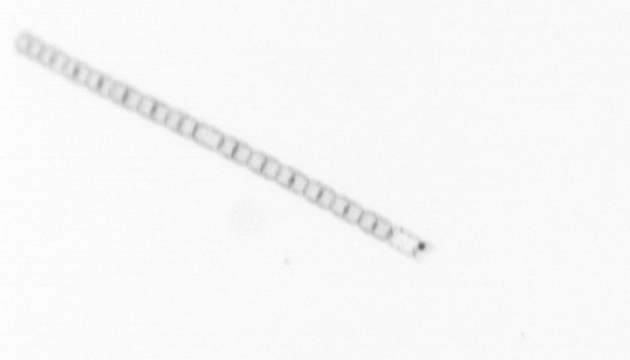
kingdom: Chromista
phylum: Ochrophyta
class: Bacillariophyceae
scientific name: Bacillariophyceae
